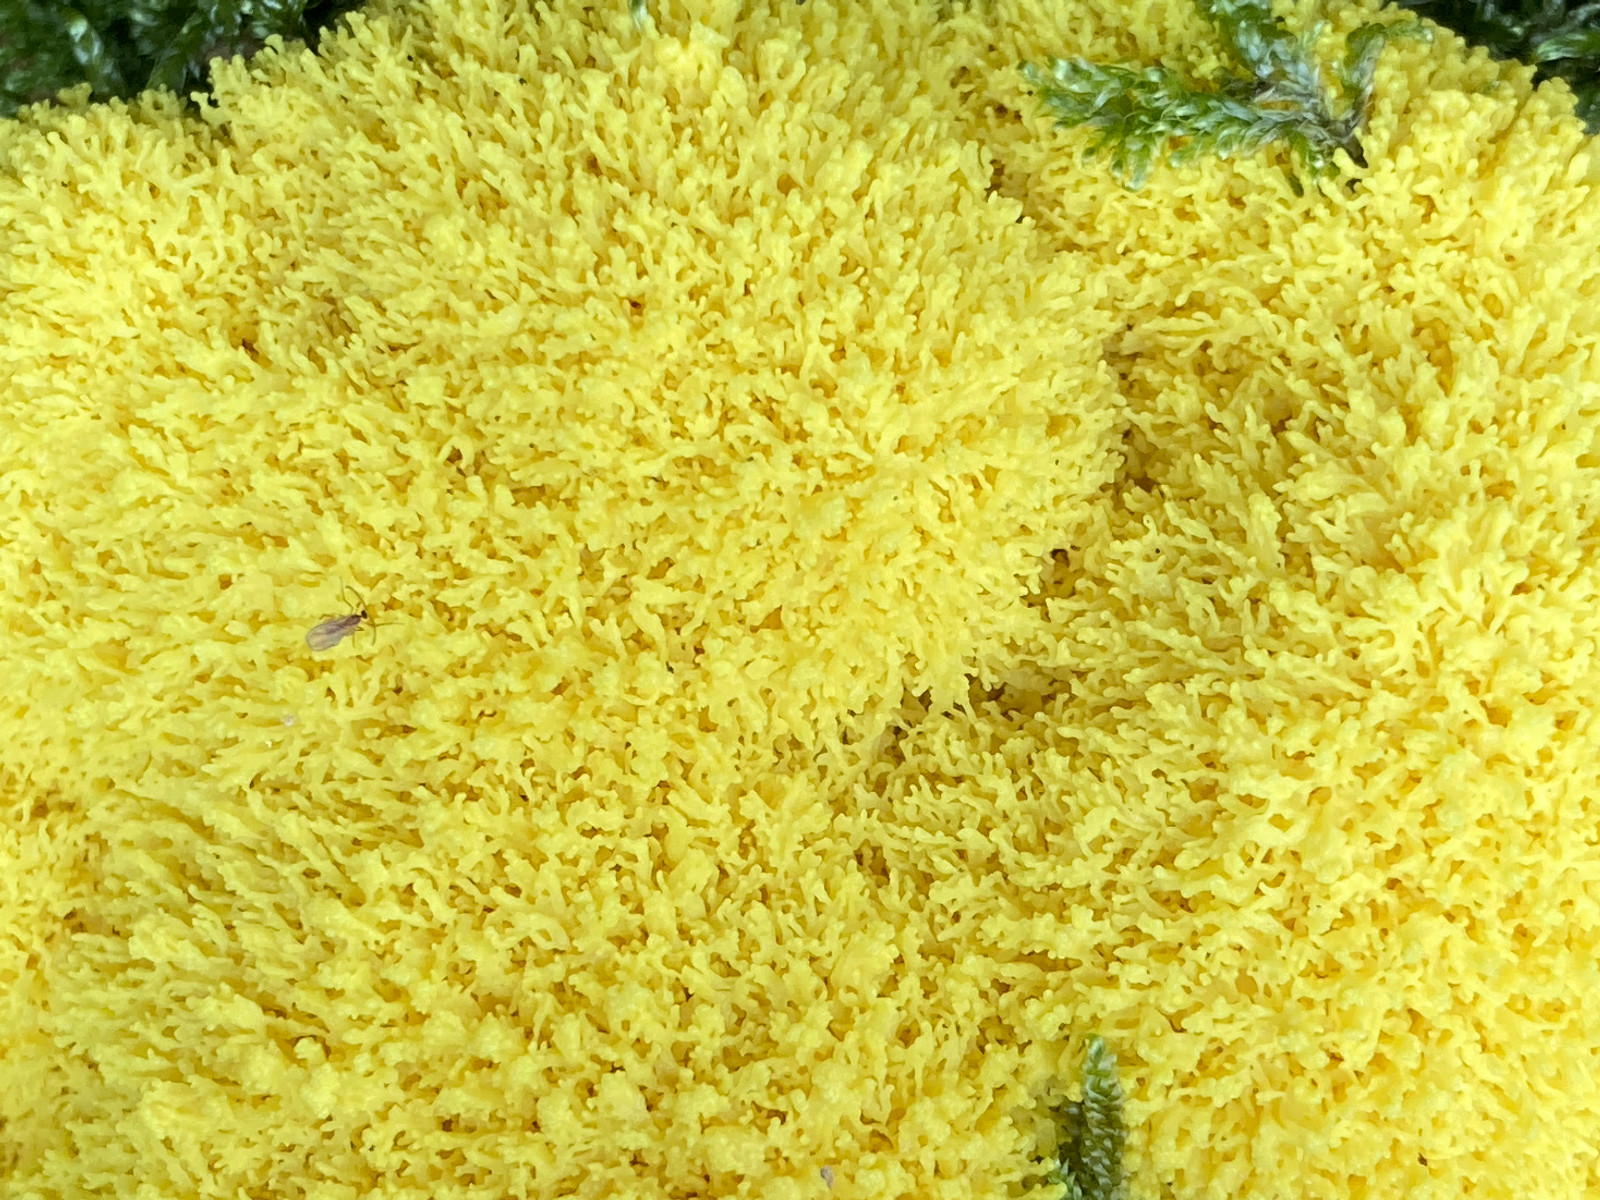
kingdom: Protozoa
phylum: Mycetozoa
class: Myxomycetes
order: Physarales
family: Physaraceae
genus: Fuligo
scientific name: Fuligo septica
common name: gul troldsmør
